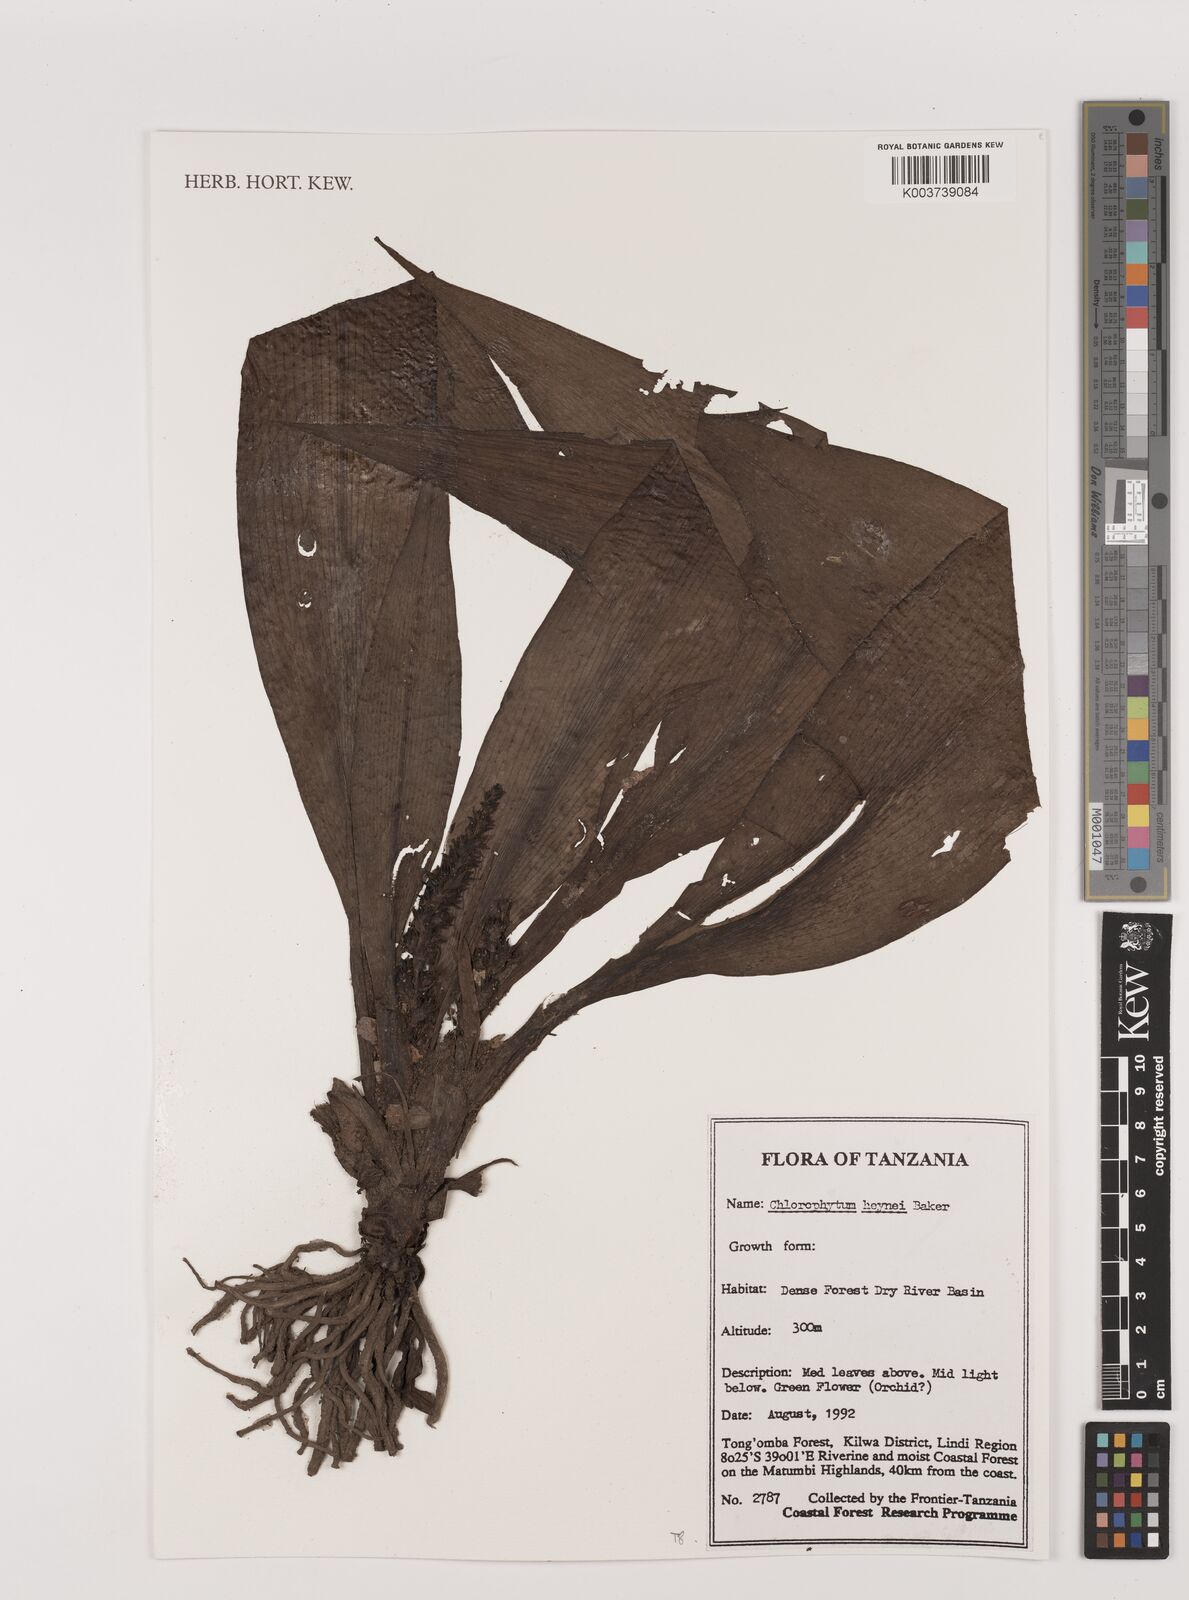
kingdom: Plantae
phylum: Tracheophyta
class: Liliopsida
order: Asparagales
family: Asparagaceae
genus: Chlorophytum
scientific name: Chlorophytum heynei
